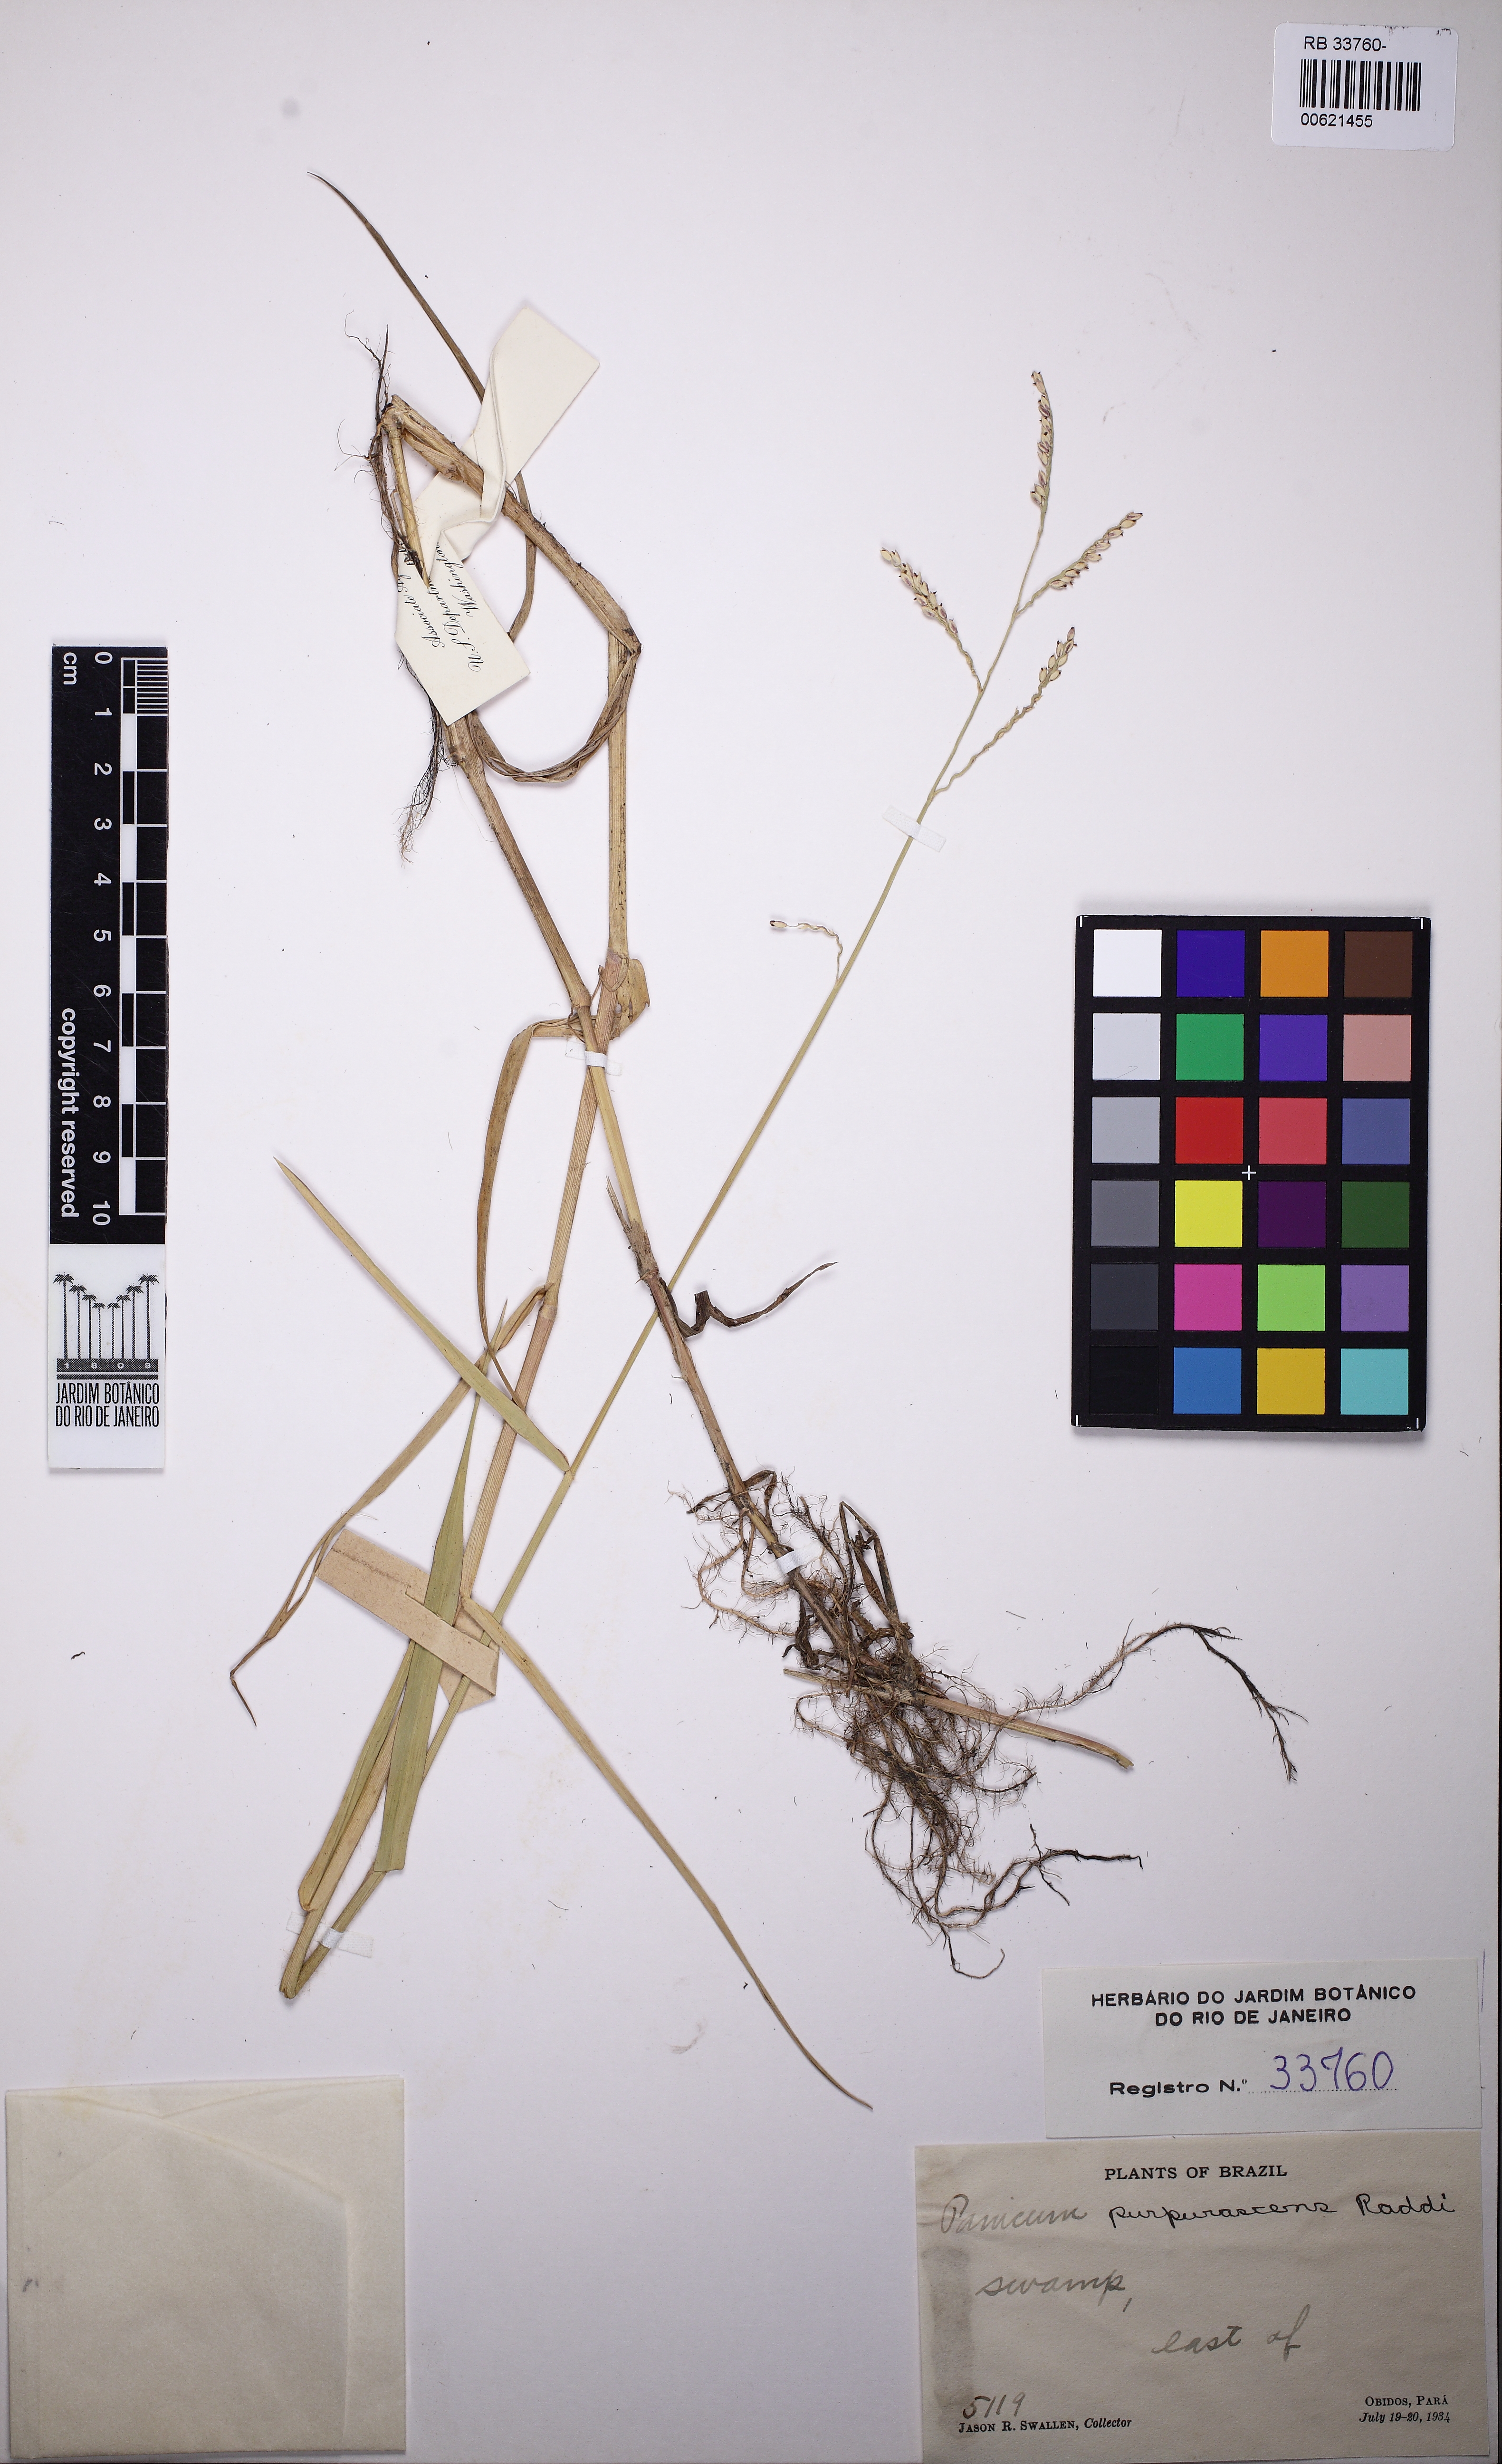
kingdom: Plantae
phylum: Tracheophyta
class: Liliopsida
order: Poales
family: Poaceae
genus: Urochloa
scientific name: Urochloa mutica
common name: Para grass
